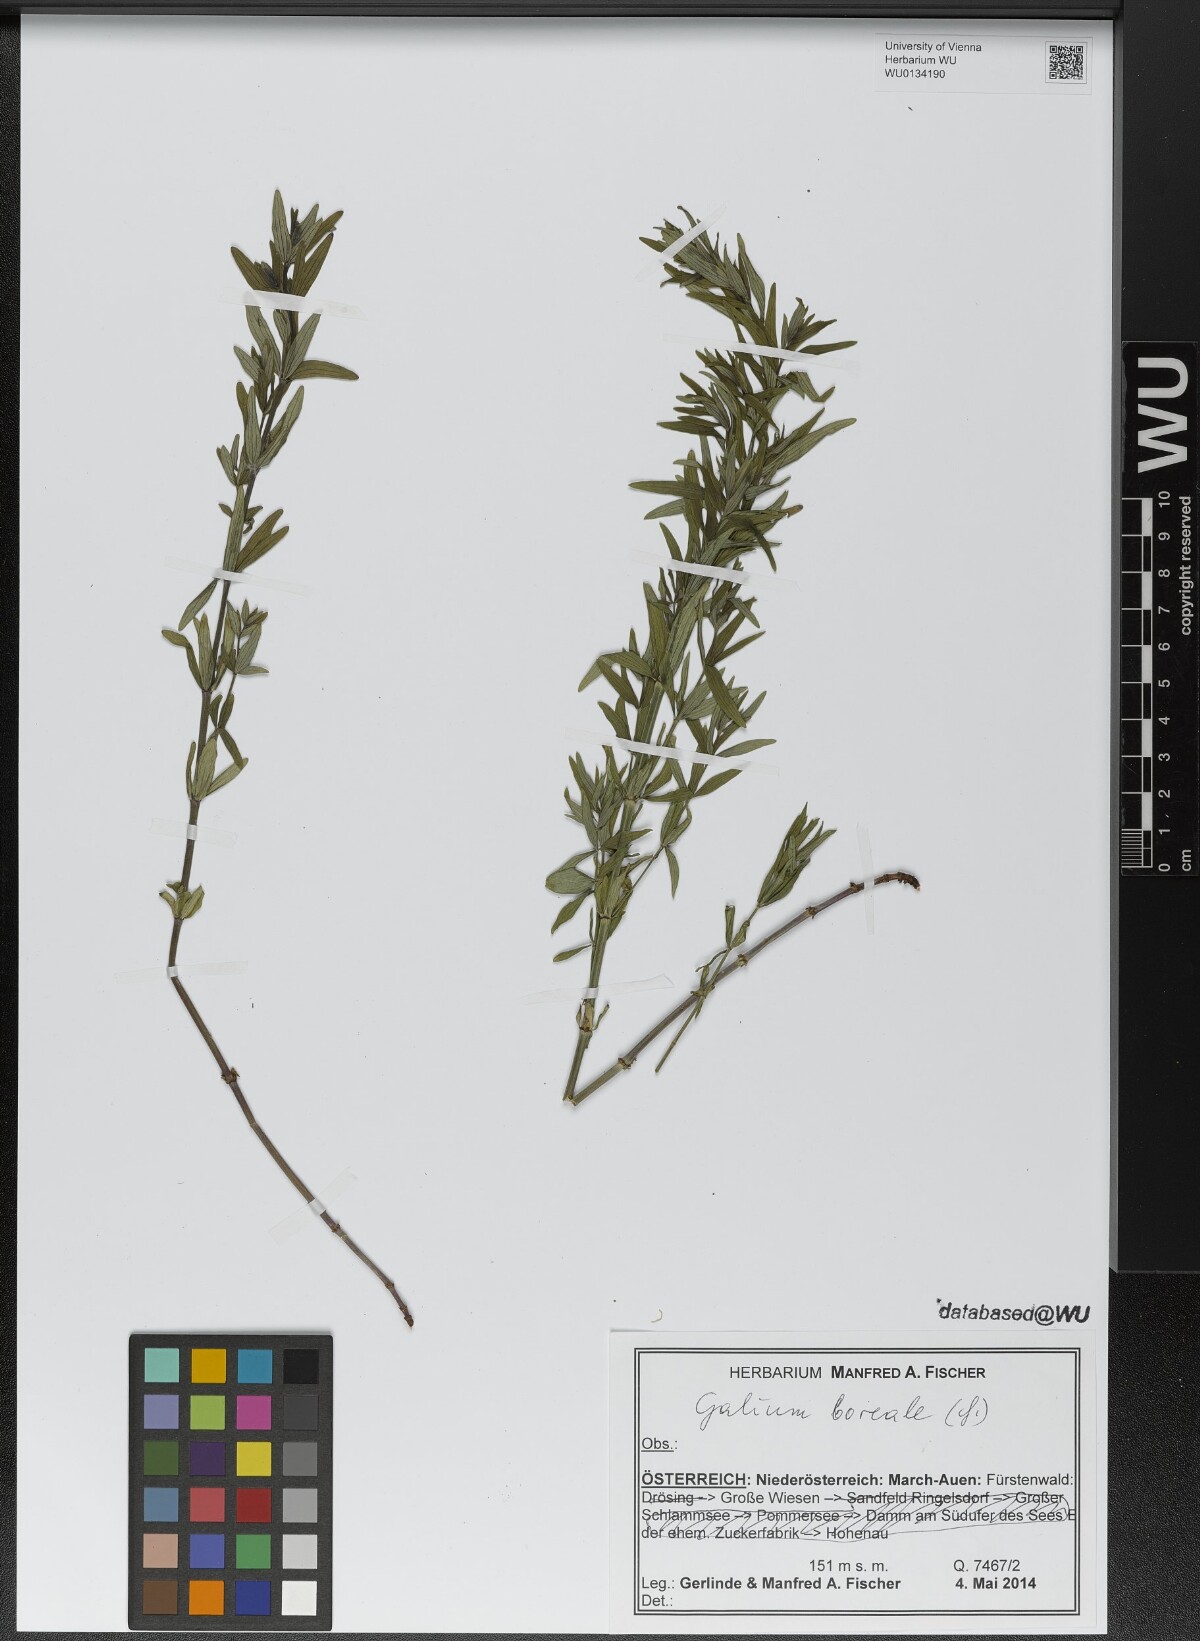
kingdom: Plantae
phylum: Tracheophyta
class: Magnoliopsida
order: Gentianales
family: Rubiaceae
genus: Galium
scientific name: Galium boreale
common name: Northern bedstraw
